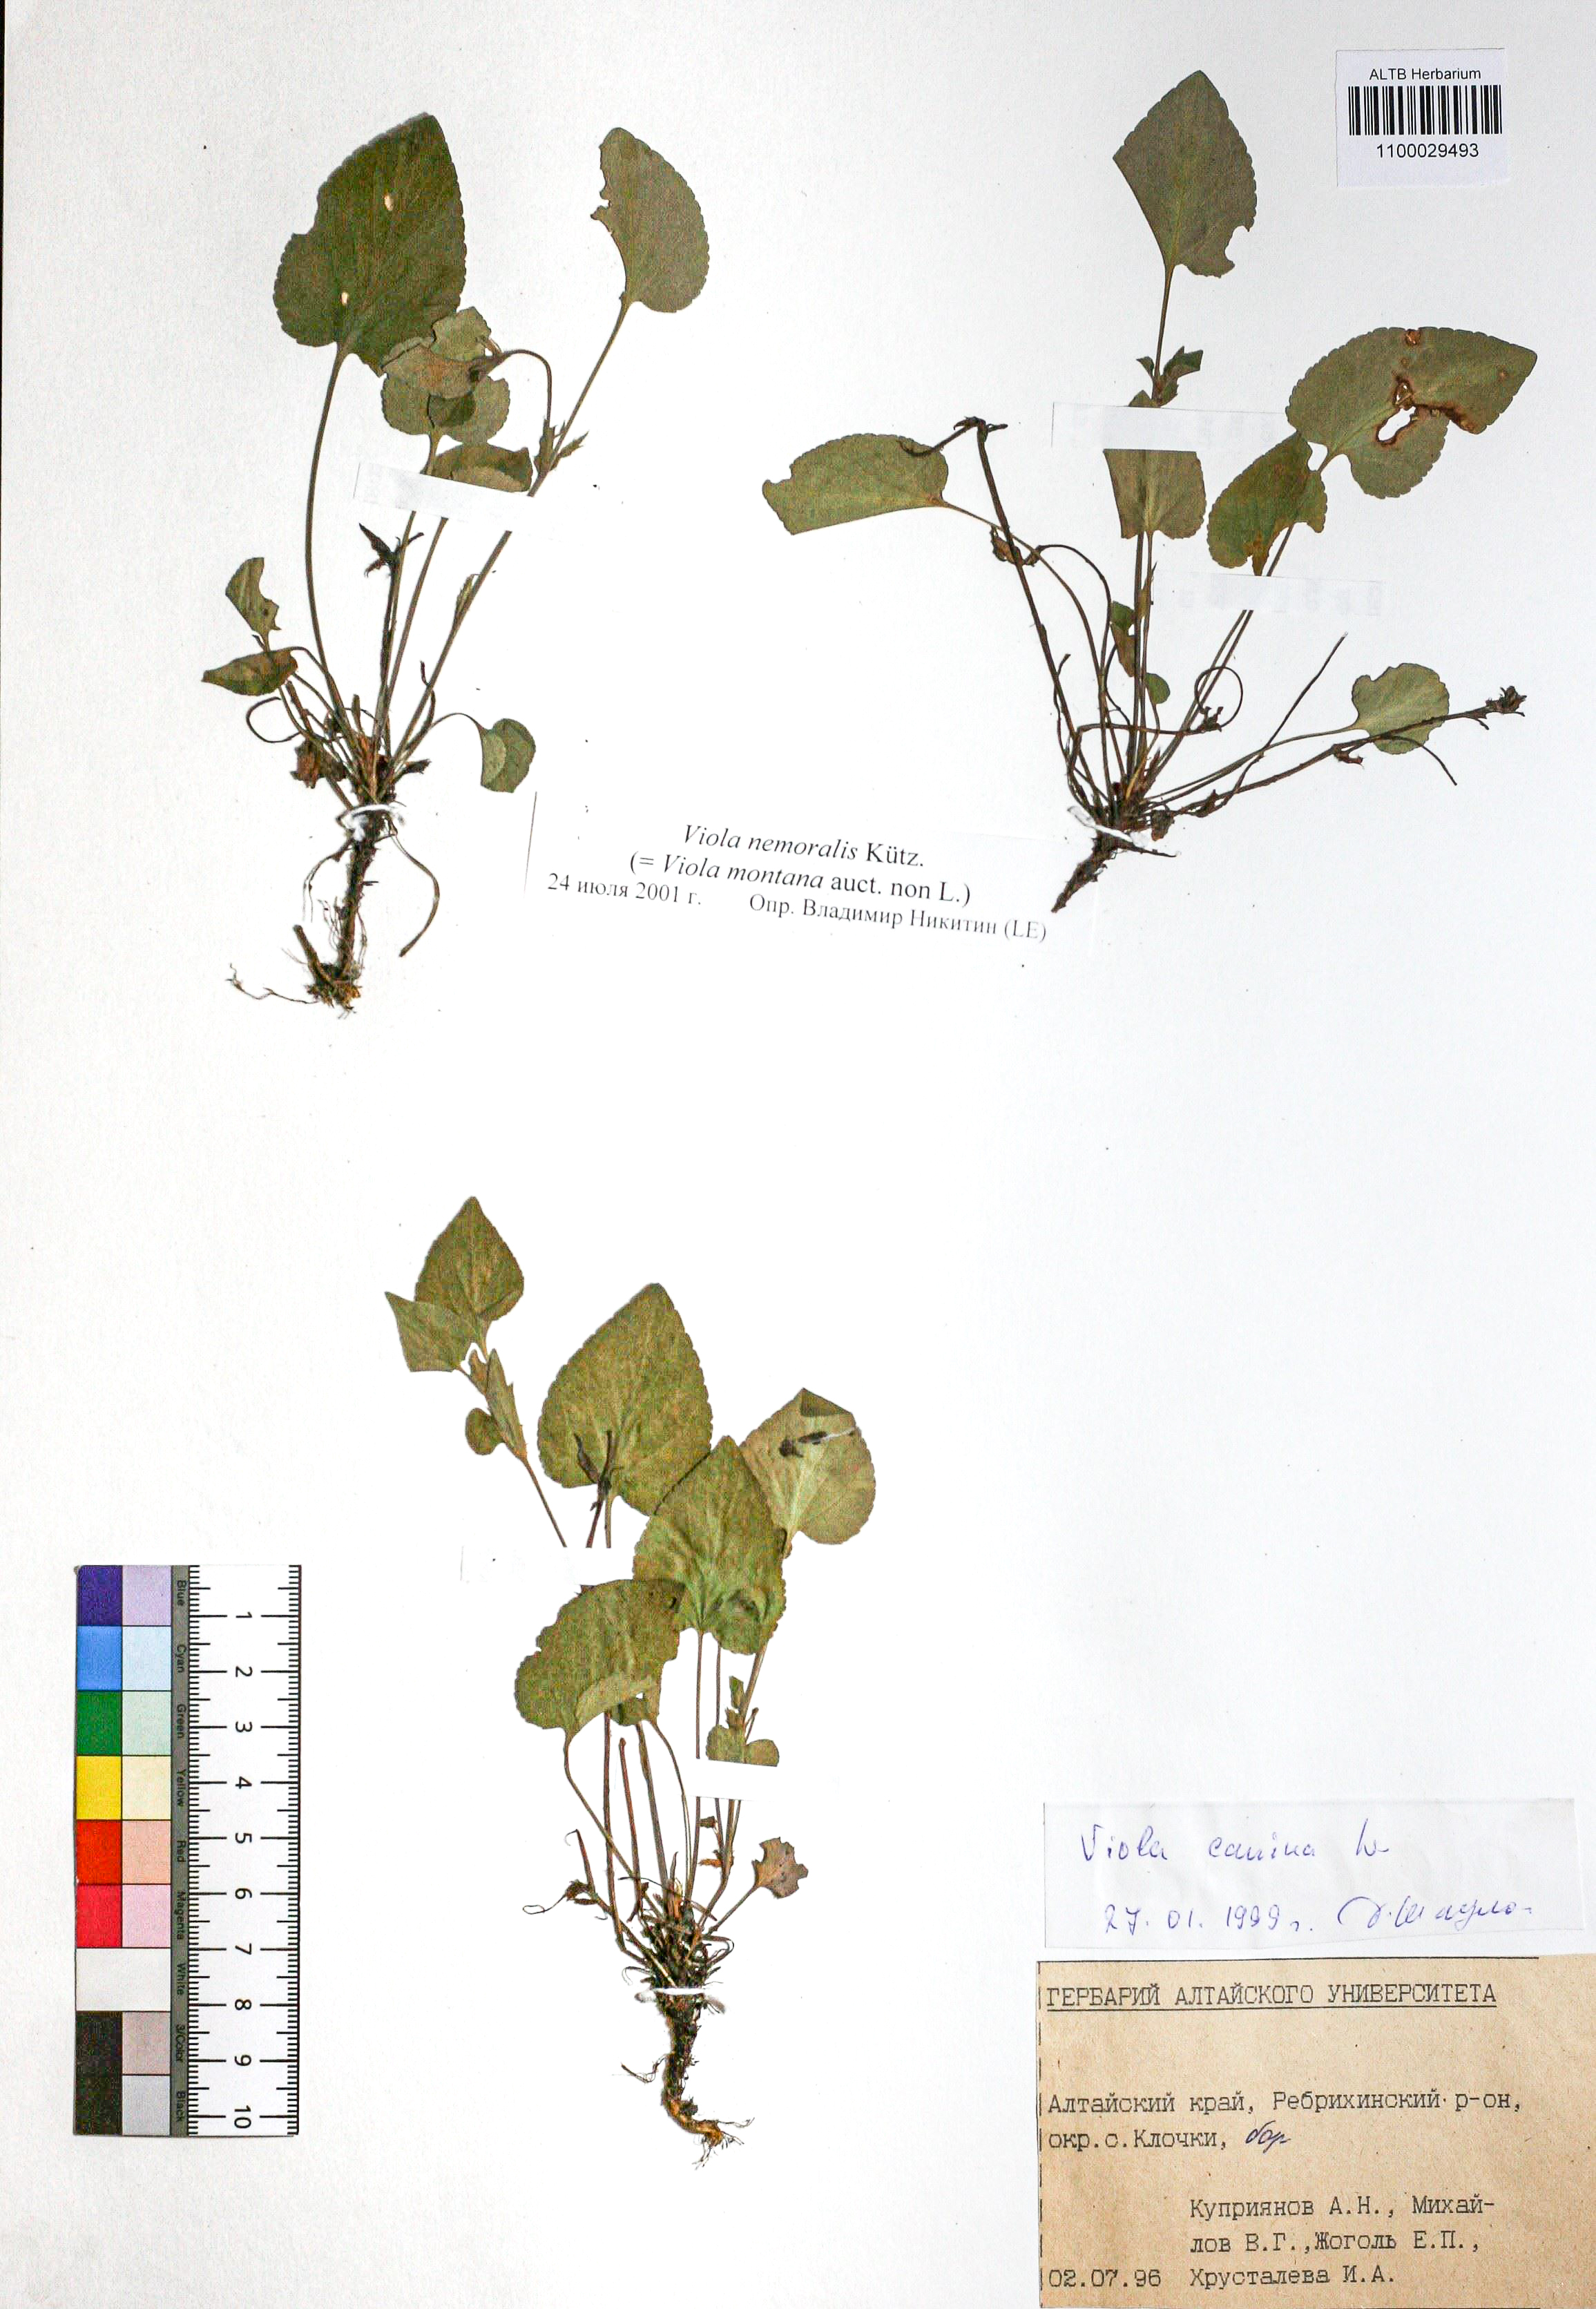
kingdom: Plantae
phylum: Tracheophyta
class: Magnoliopsida
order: Malpighiales
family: Violaceae
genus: Viola
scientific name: Viola ruppii
